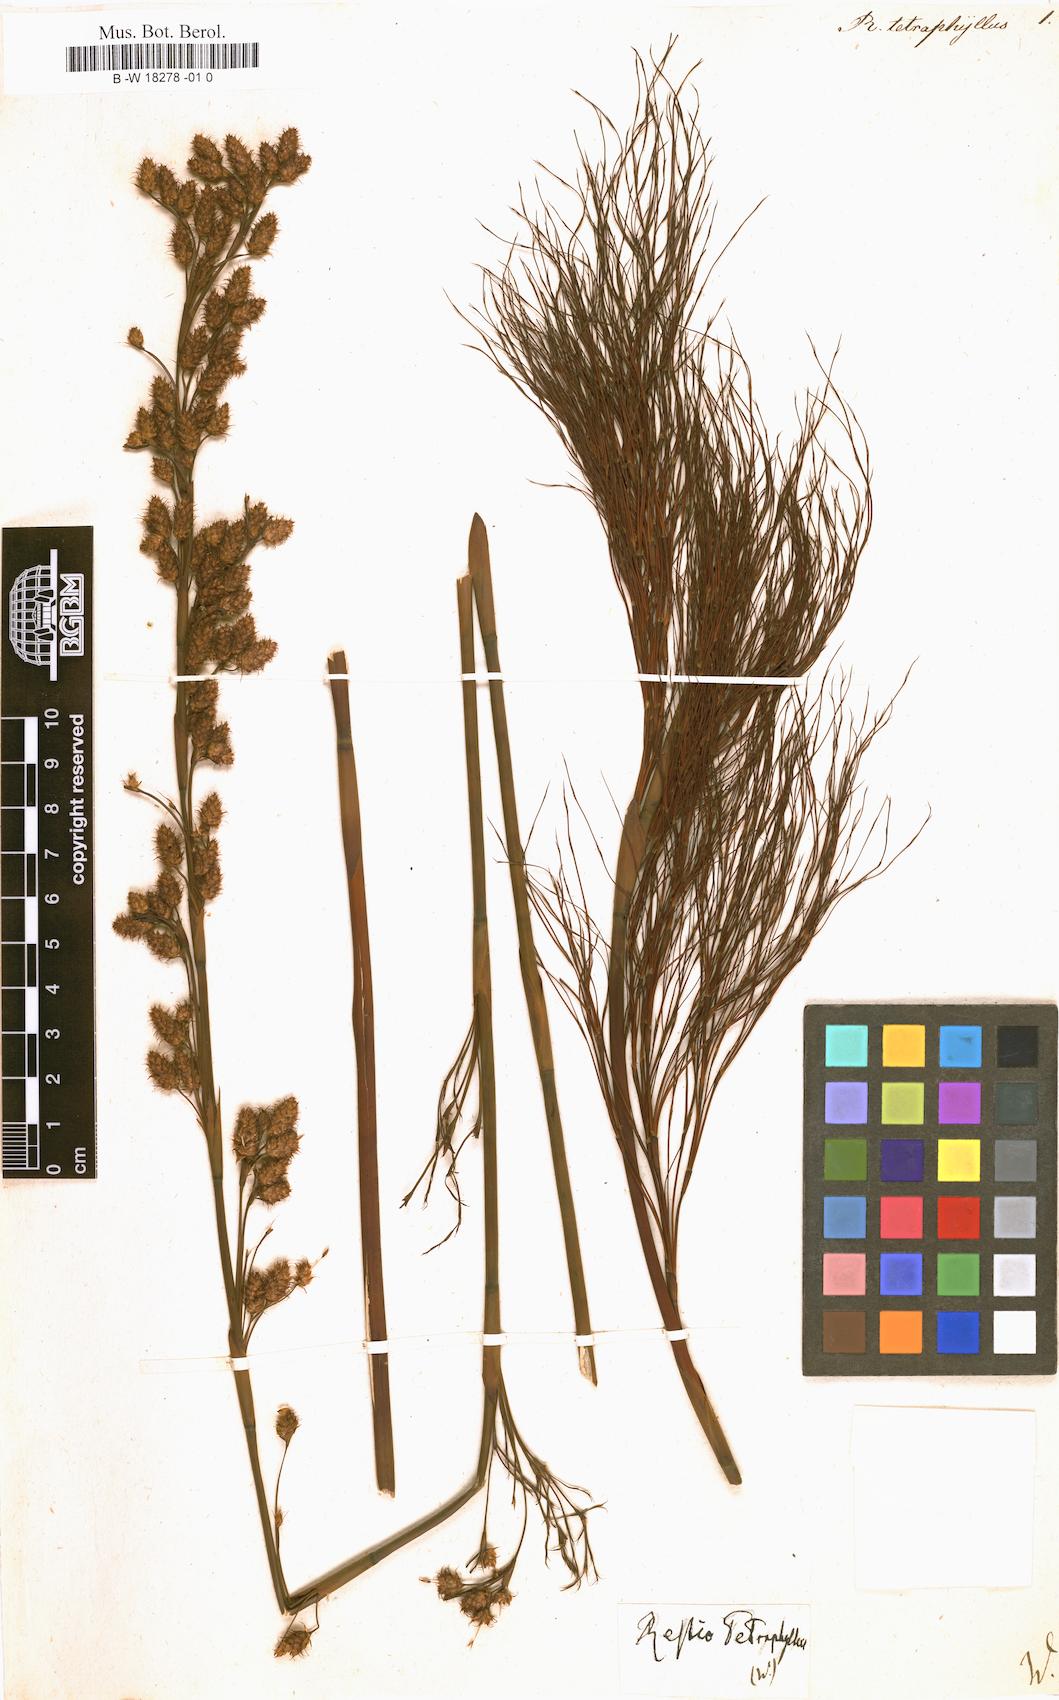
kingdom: Plantae
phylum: Tracheophyta
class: Liliopsida
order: Poales
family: Restionaceae
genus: Baloskion
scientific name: Baloskion tetraphyllum
